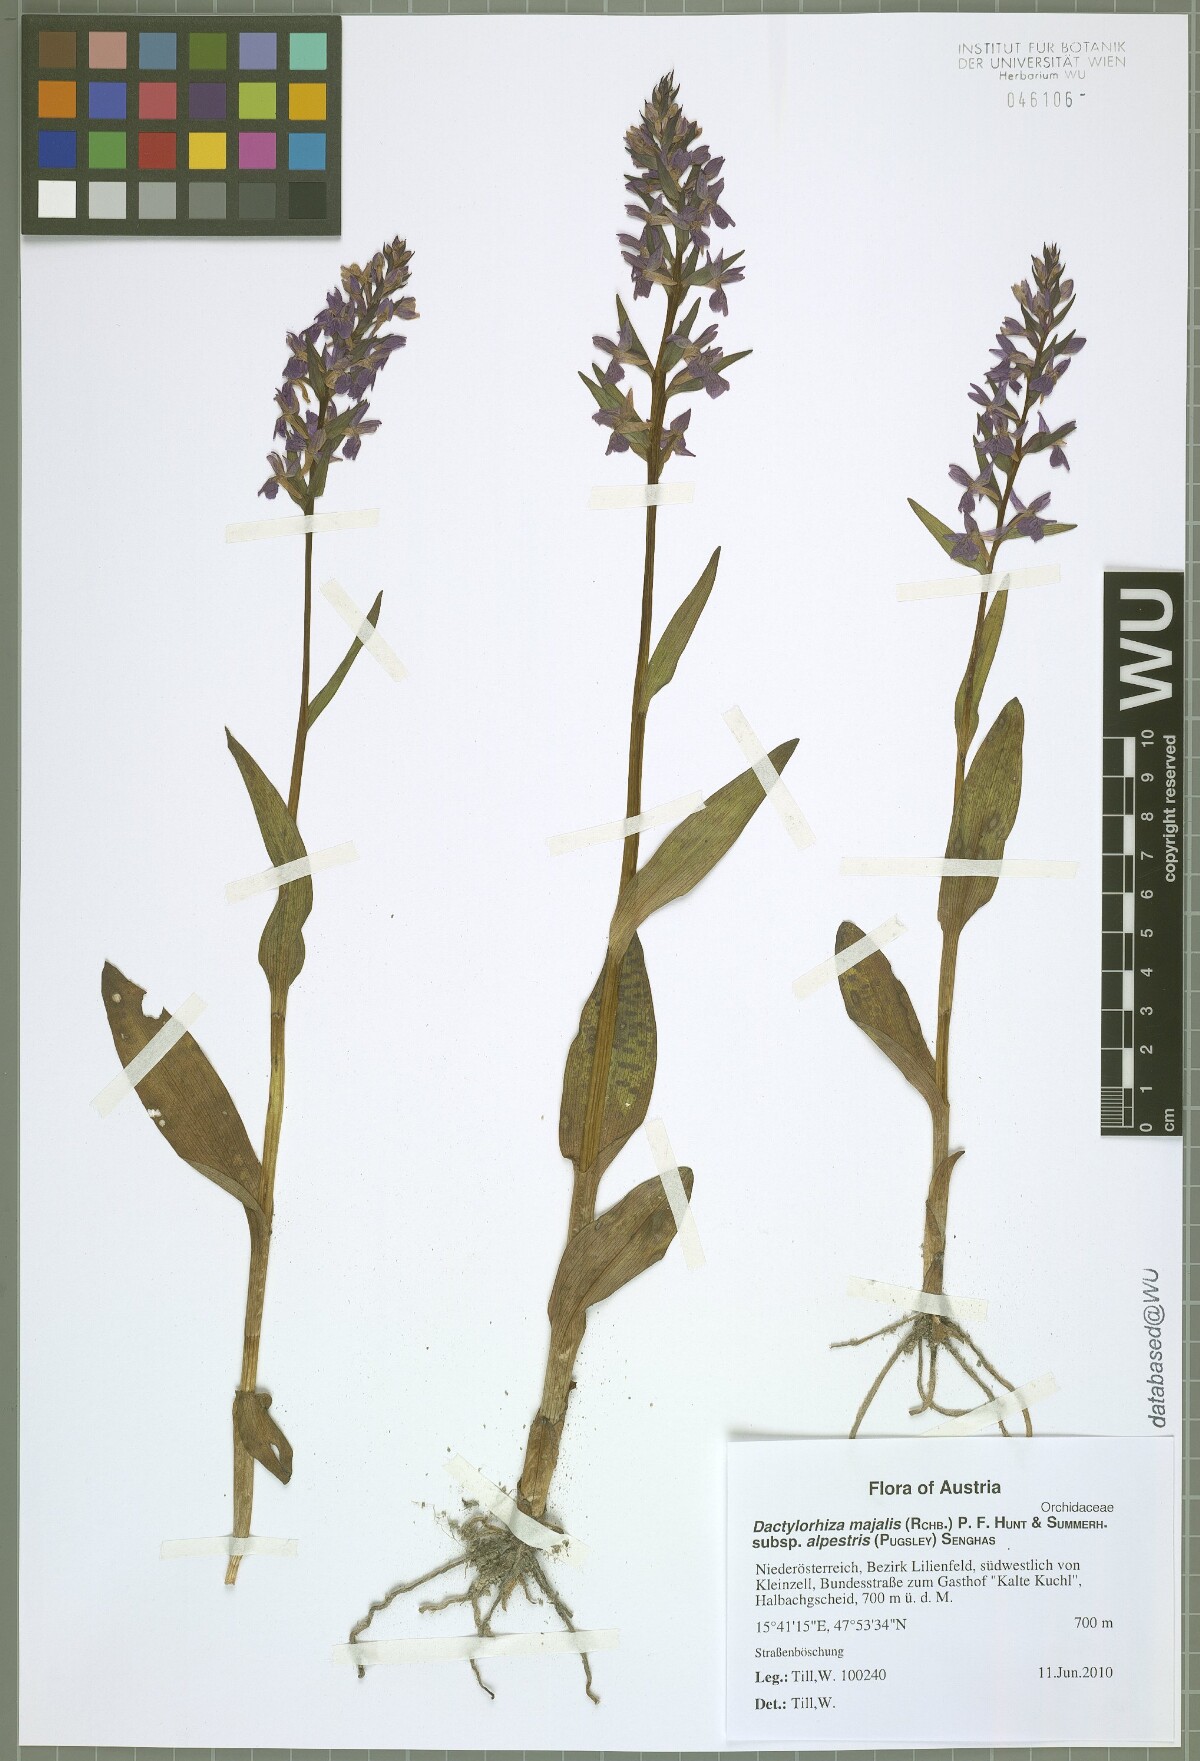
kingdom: Plantae
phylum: Tracheophyta
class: Liliopsida
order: Asparagales
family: Orchidaceae
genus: Dactylorhiza
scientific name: Dactylorhiza majalis
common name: Marsh orchid
